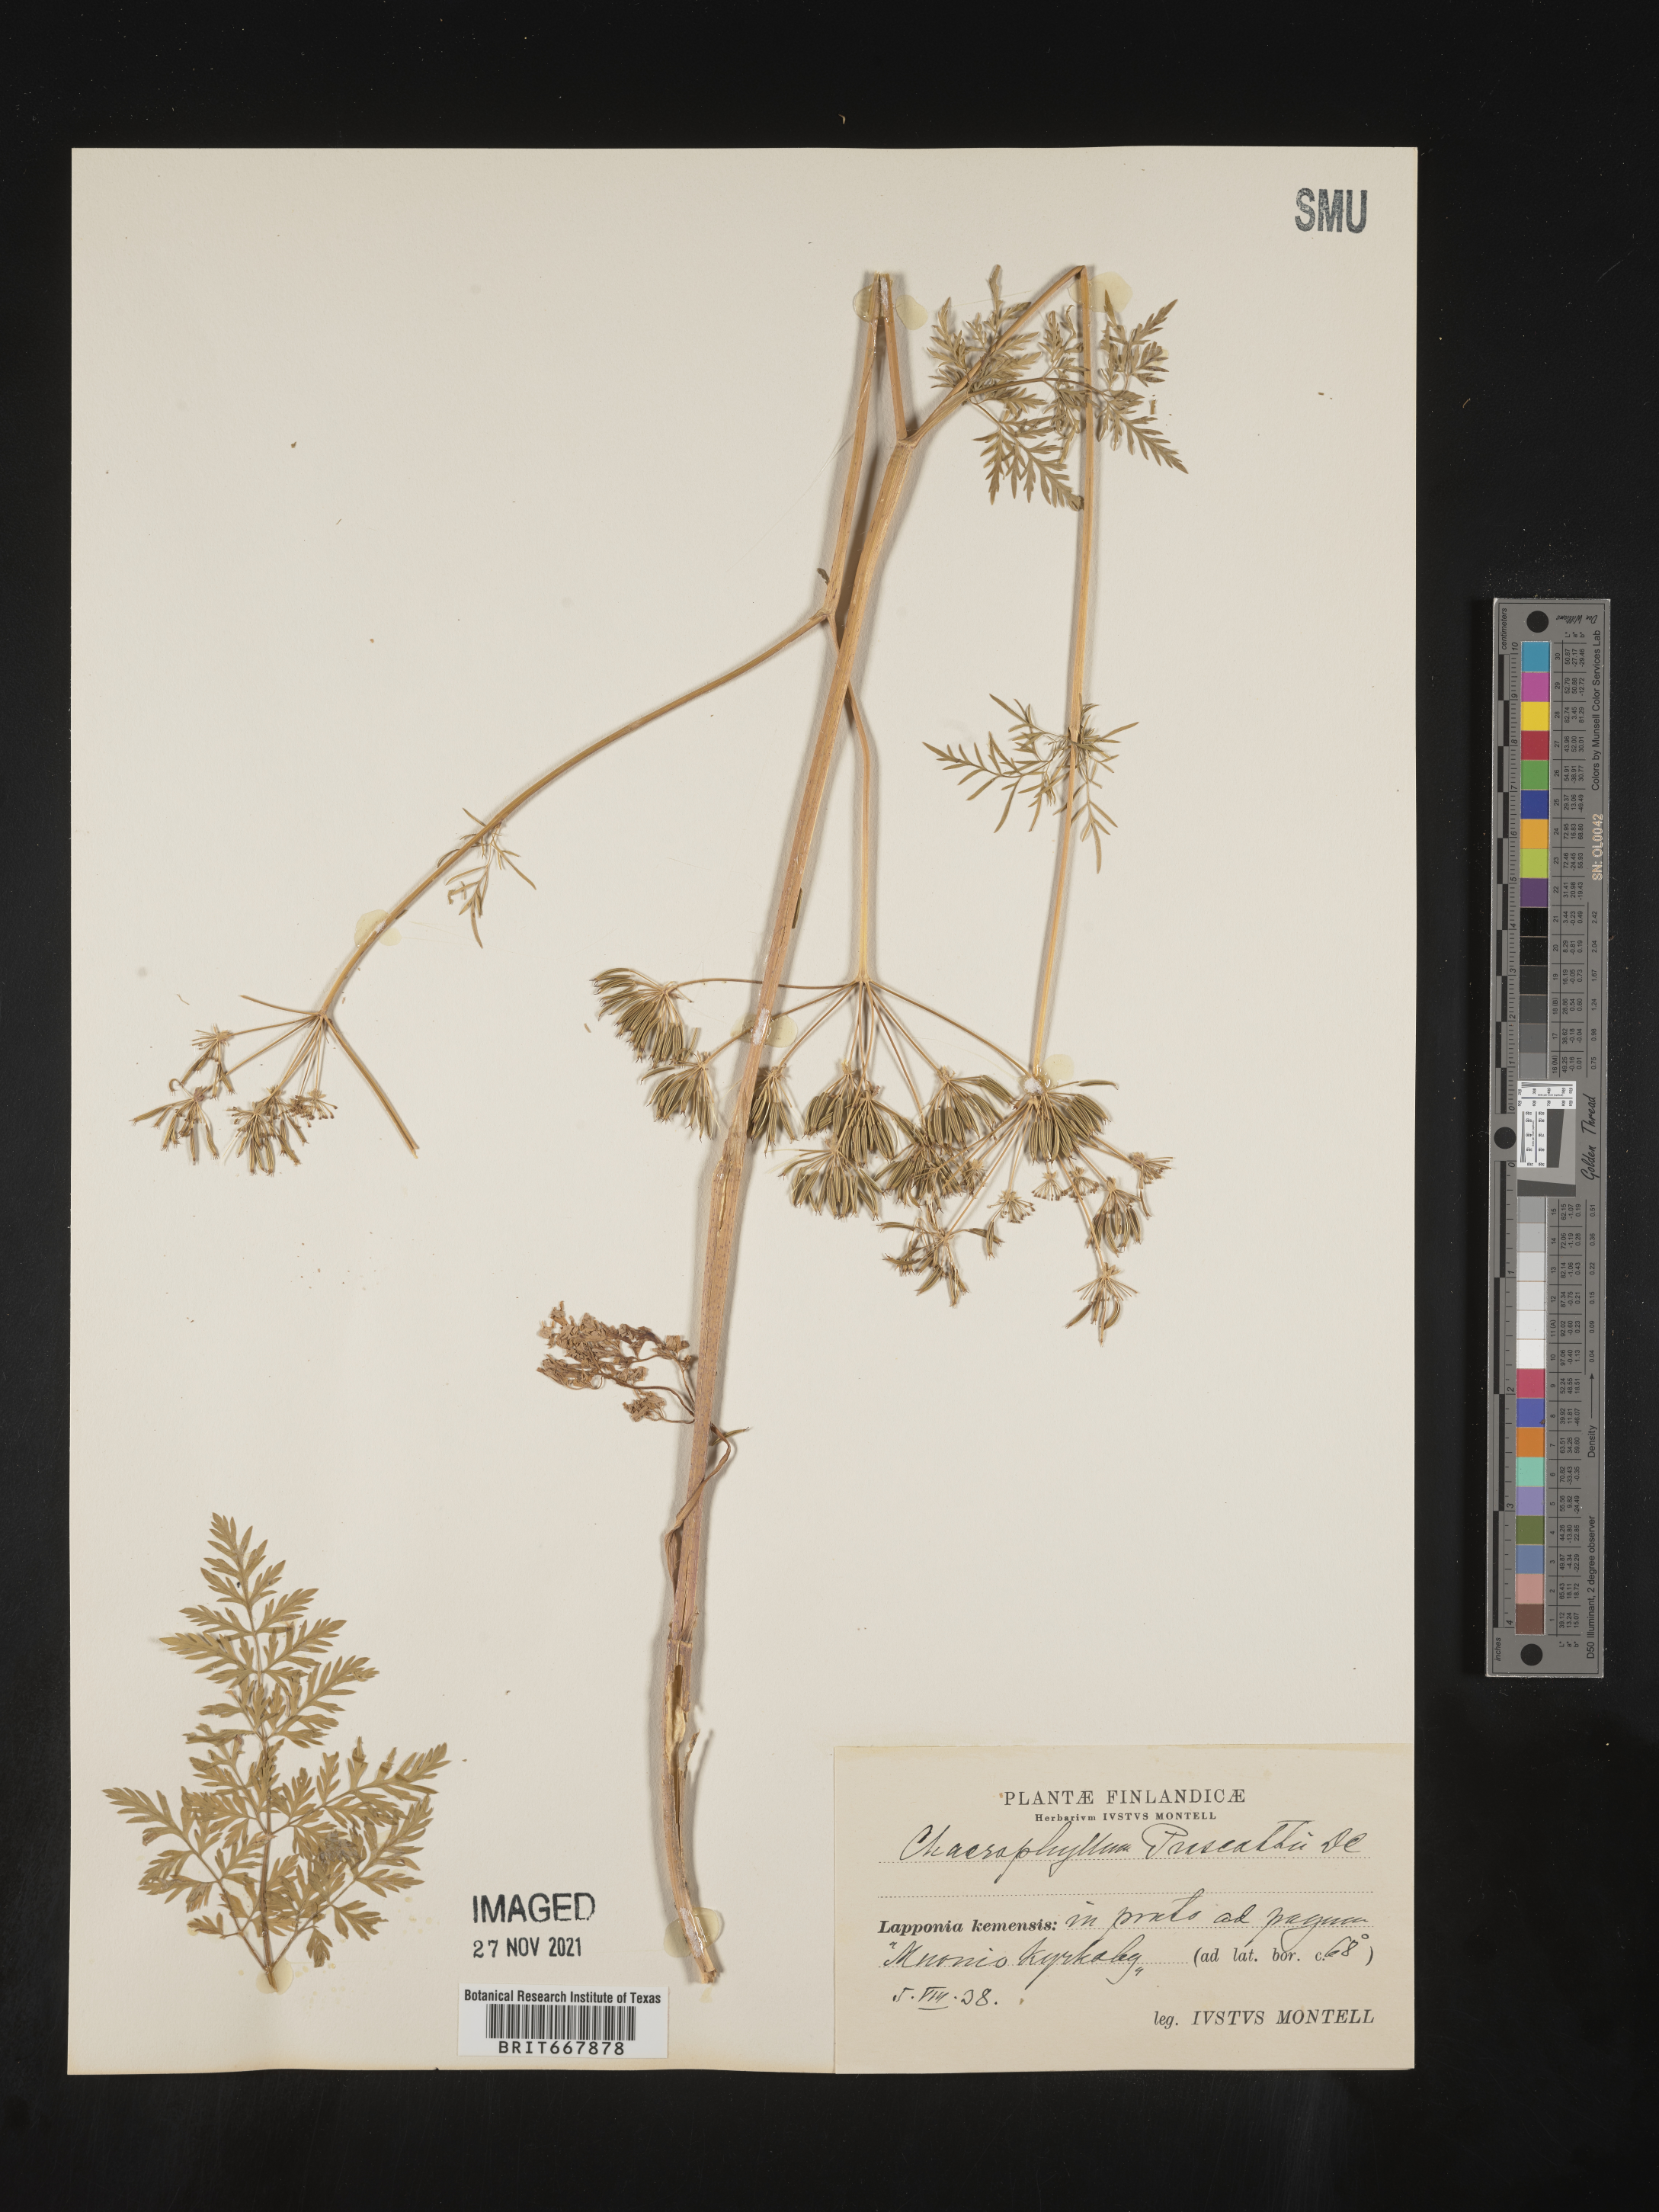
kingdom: Plantae
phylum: Tracheophyta
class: Magnoliopsida
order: Apiales
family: Apiaceae
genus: Chaerophyllum
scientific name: Chaerophyllum
